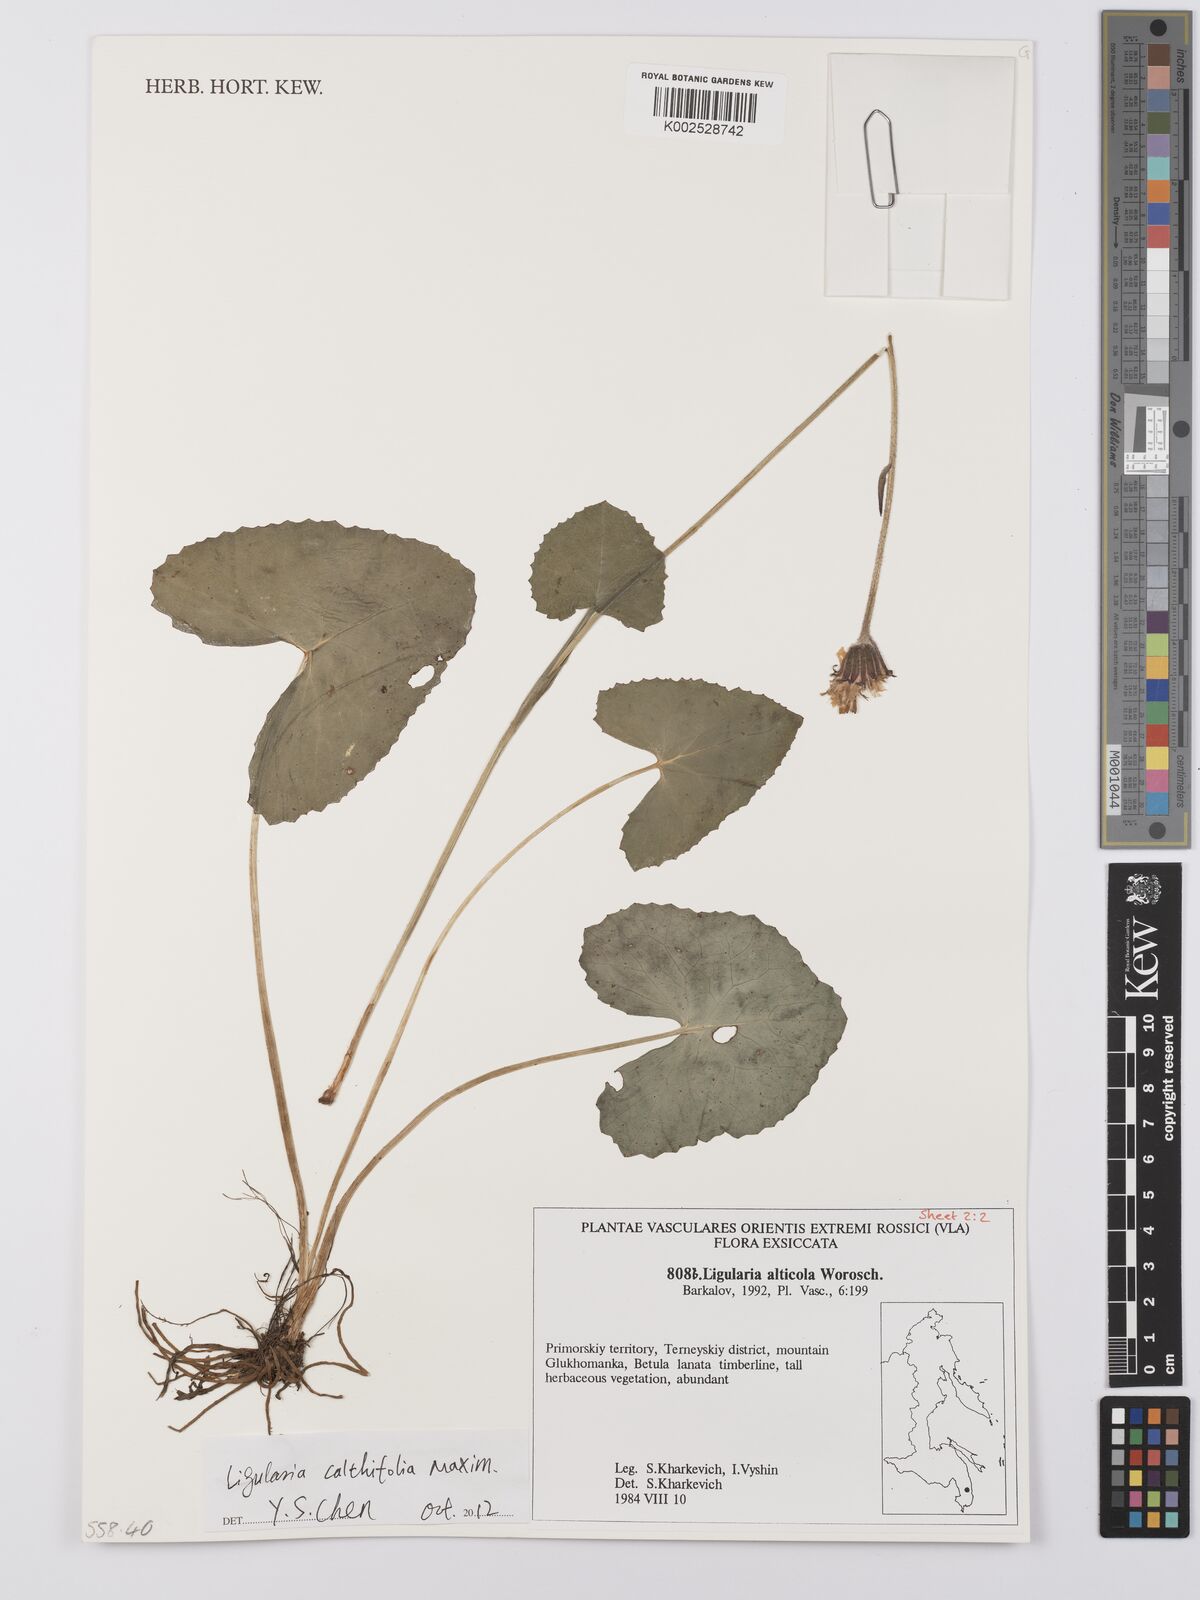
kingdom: Plantae
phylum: Tracheophyta
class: Magnoliopsida
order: Asterales
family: Asteraceae
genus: Ligularia
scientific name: Ligularia alticola
